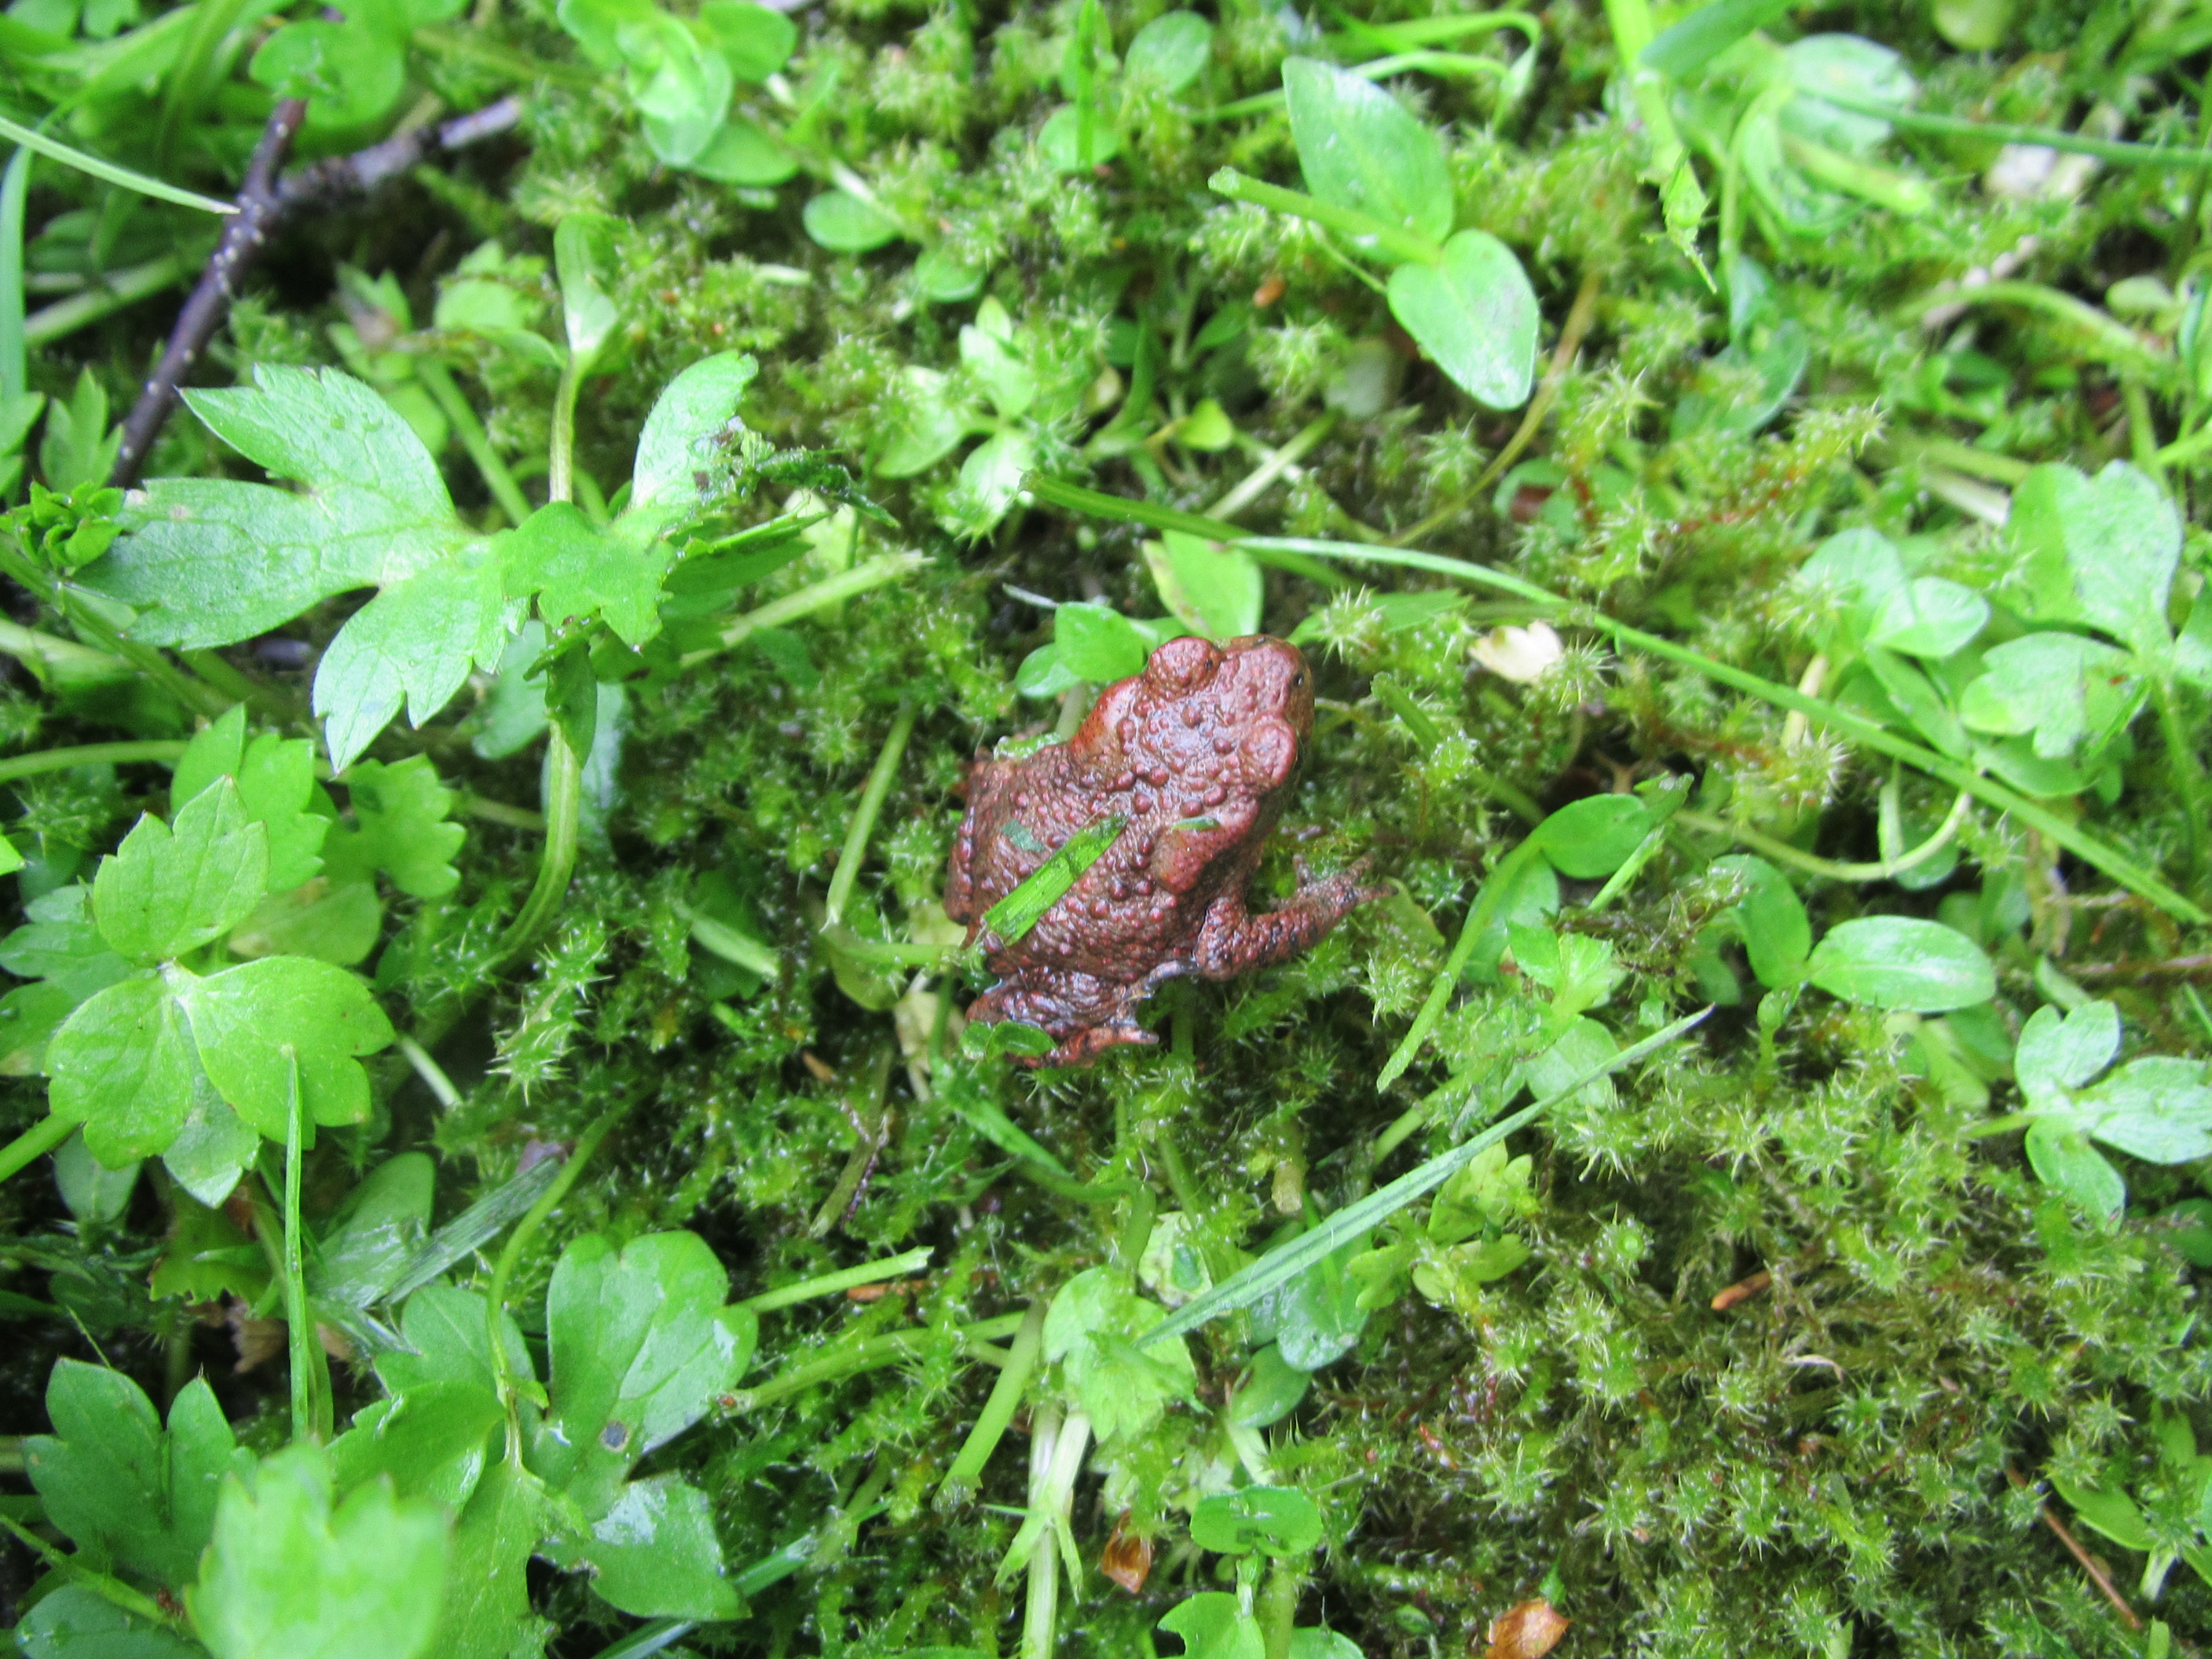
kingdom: Animalia
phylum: Chordata
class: Amphibia
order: Anura
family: Bufonidae
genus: Bufo
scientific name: Bufo bufo
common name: Common toad
